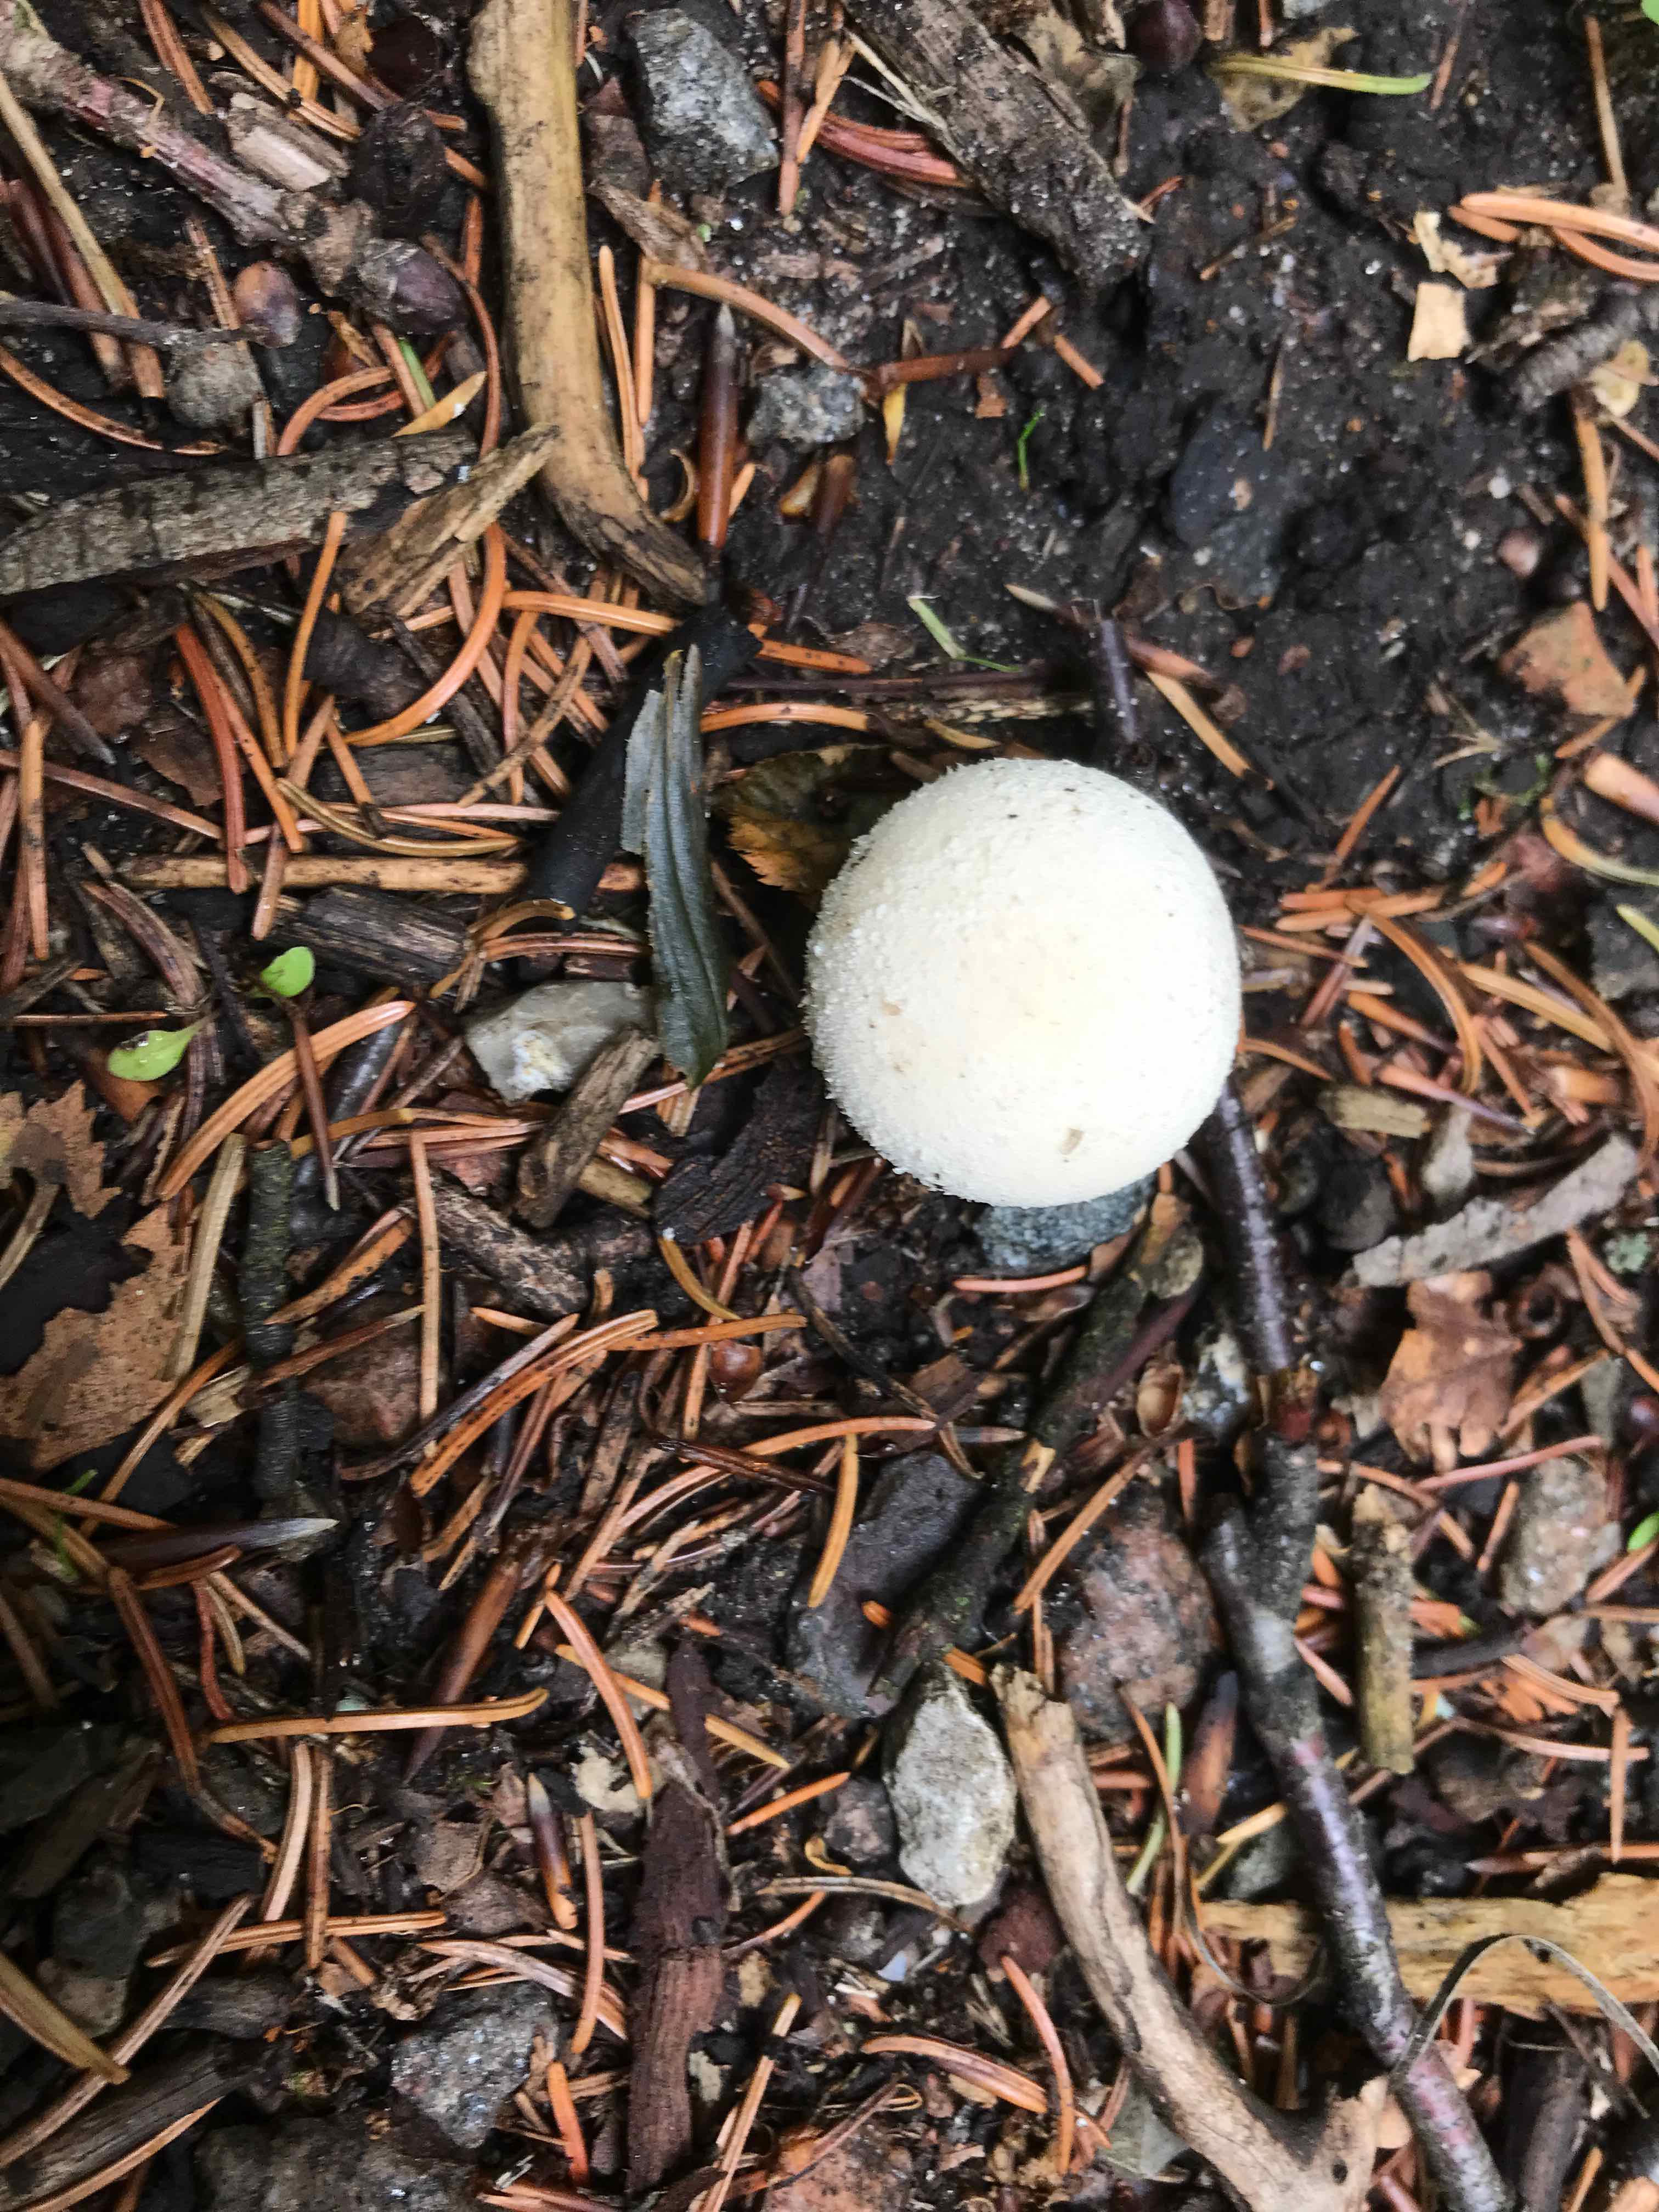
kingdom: Fungi
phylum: Basidiomycota
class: Agaricomycetes
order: Agaricales
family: Agaricaceae
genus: Lycoperdon
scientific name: Lycoperdon
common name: støvbold
